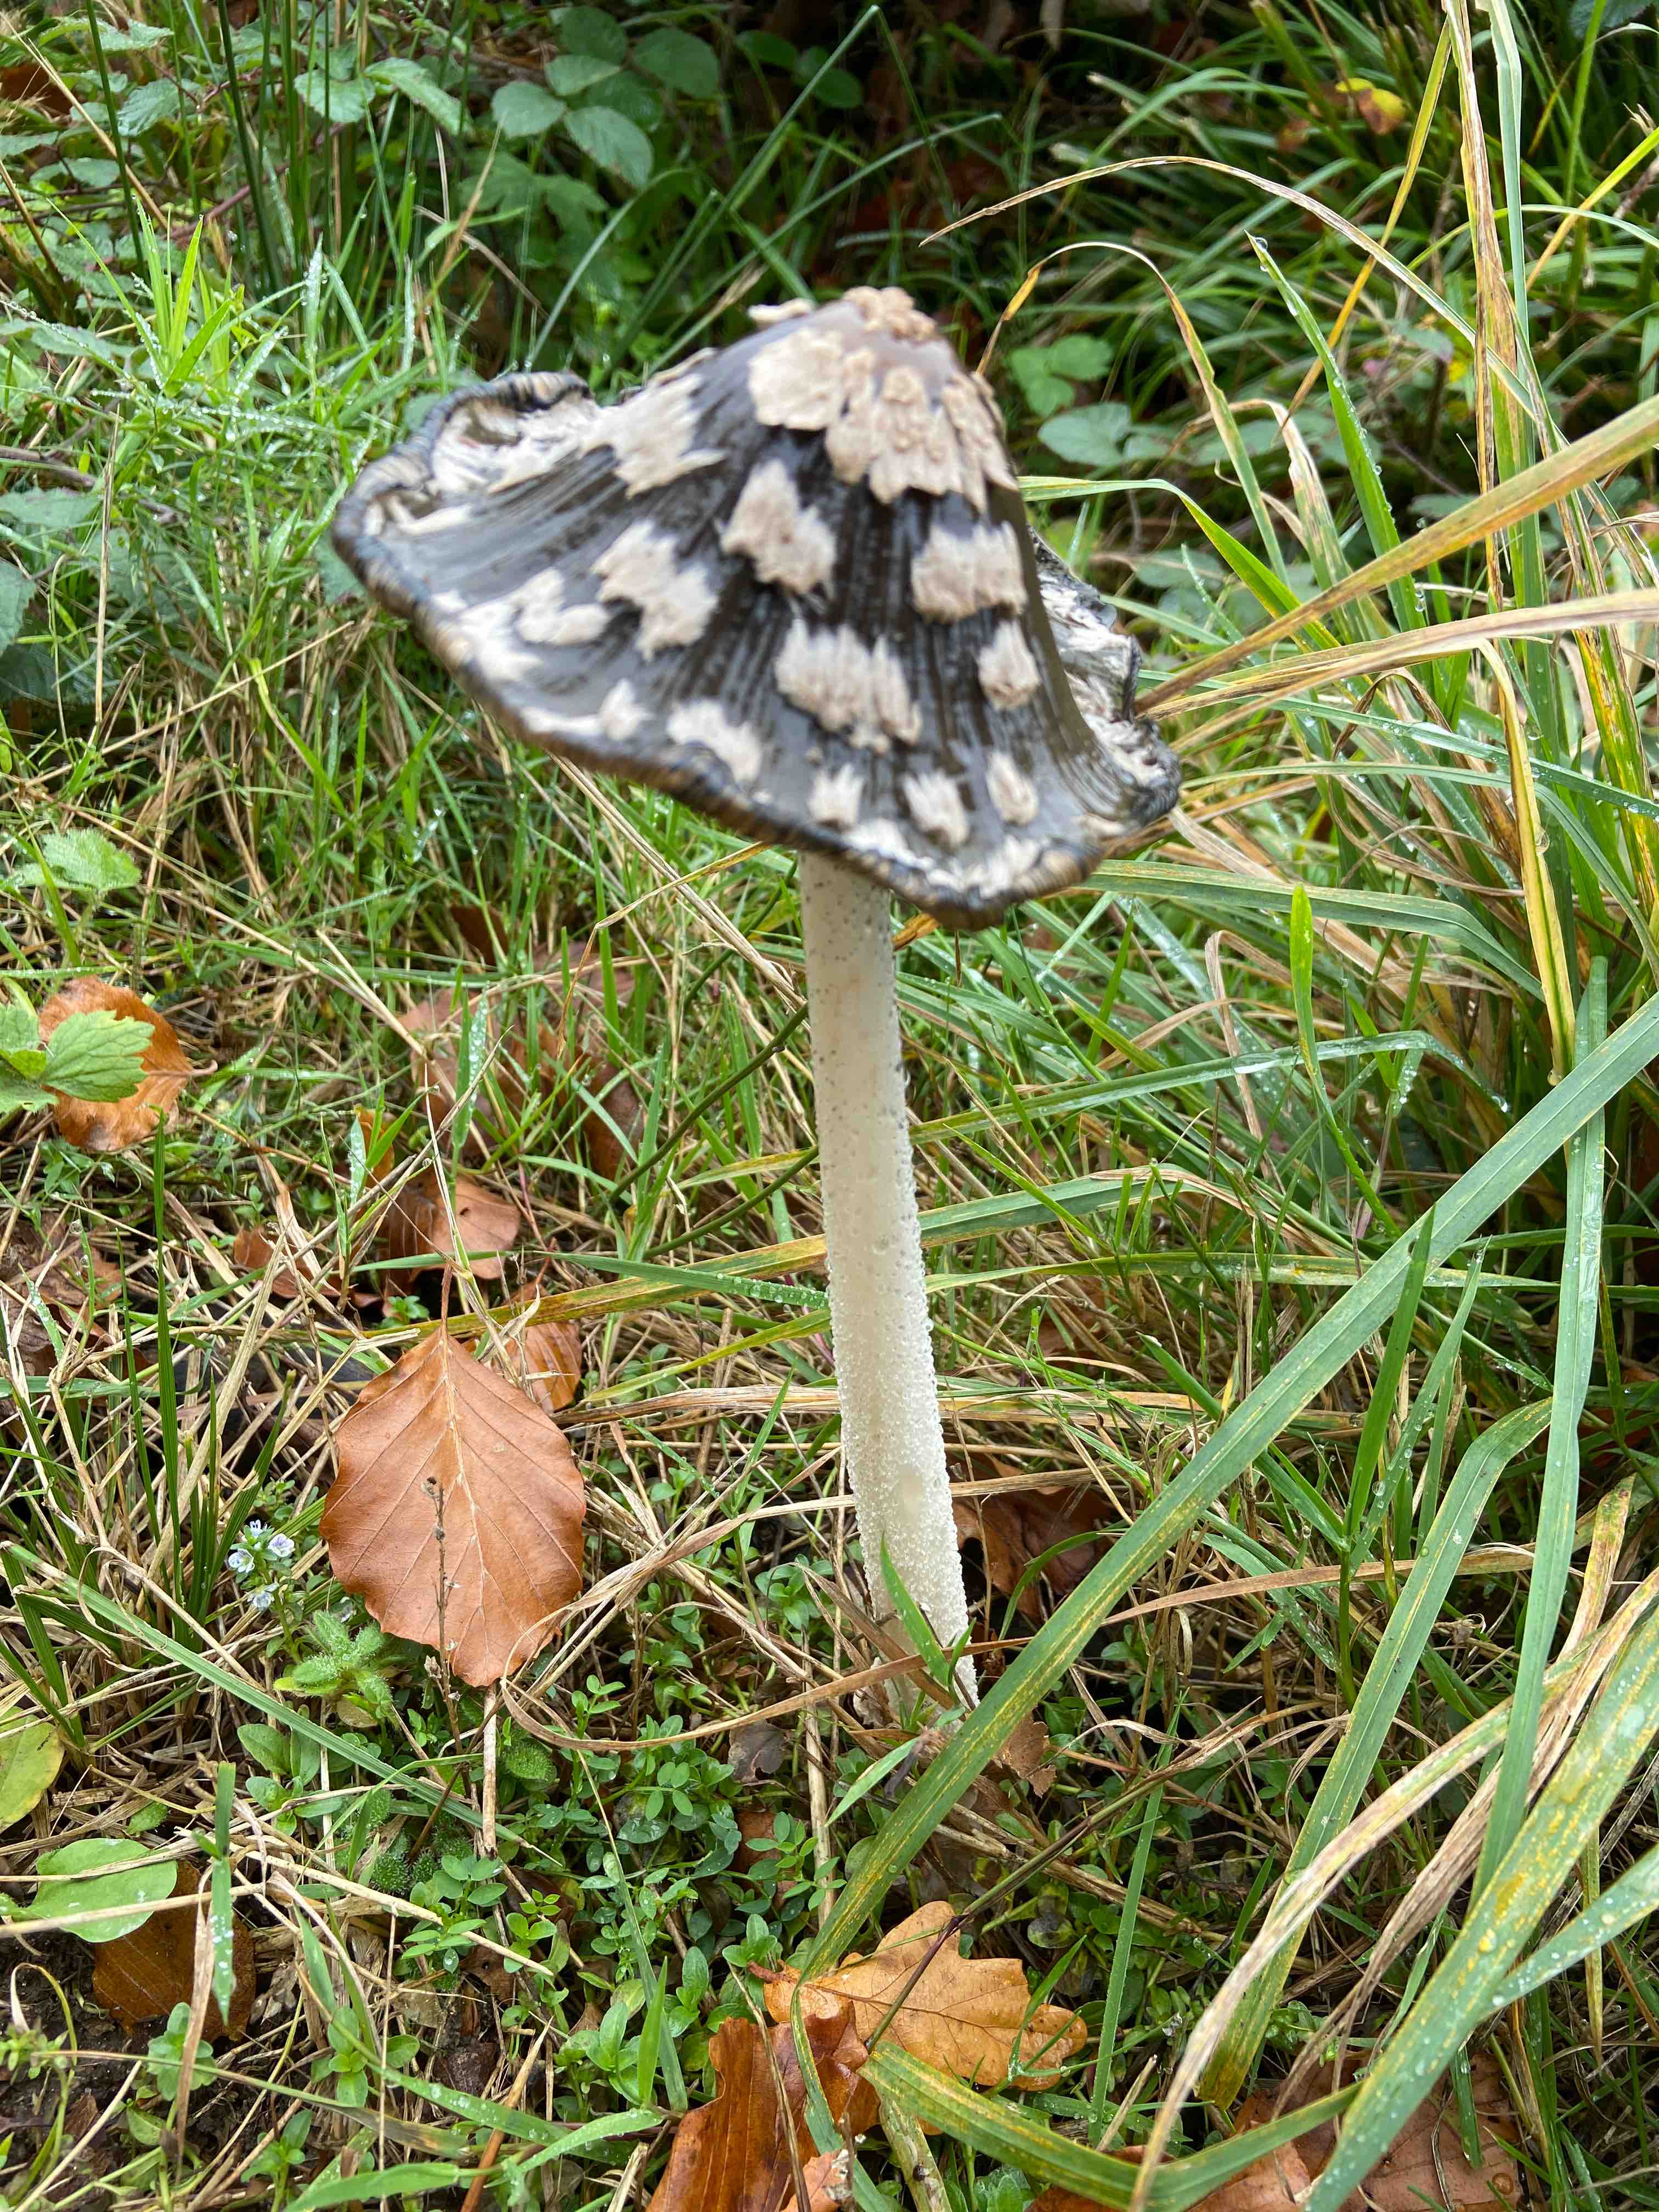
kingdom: Fungi
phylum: Basidiomycota
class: Agaricomycetes
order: Agaricales
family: Psathyrellaceae
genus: Coprinopsis
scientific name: Coprinopsis picacea
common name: skade-blækhat
